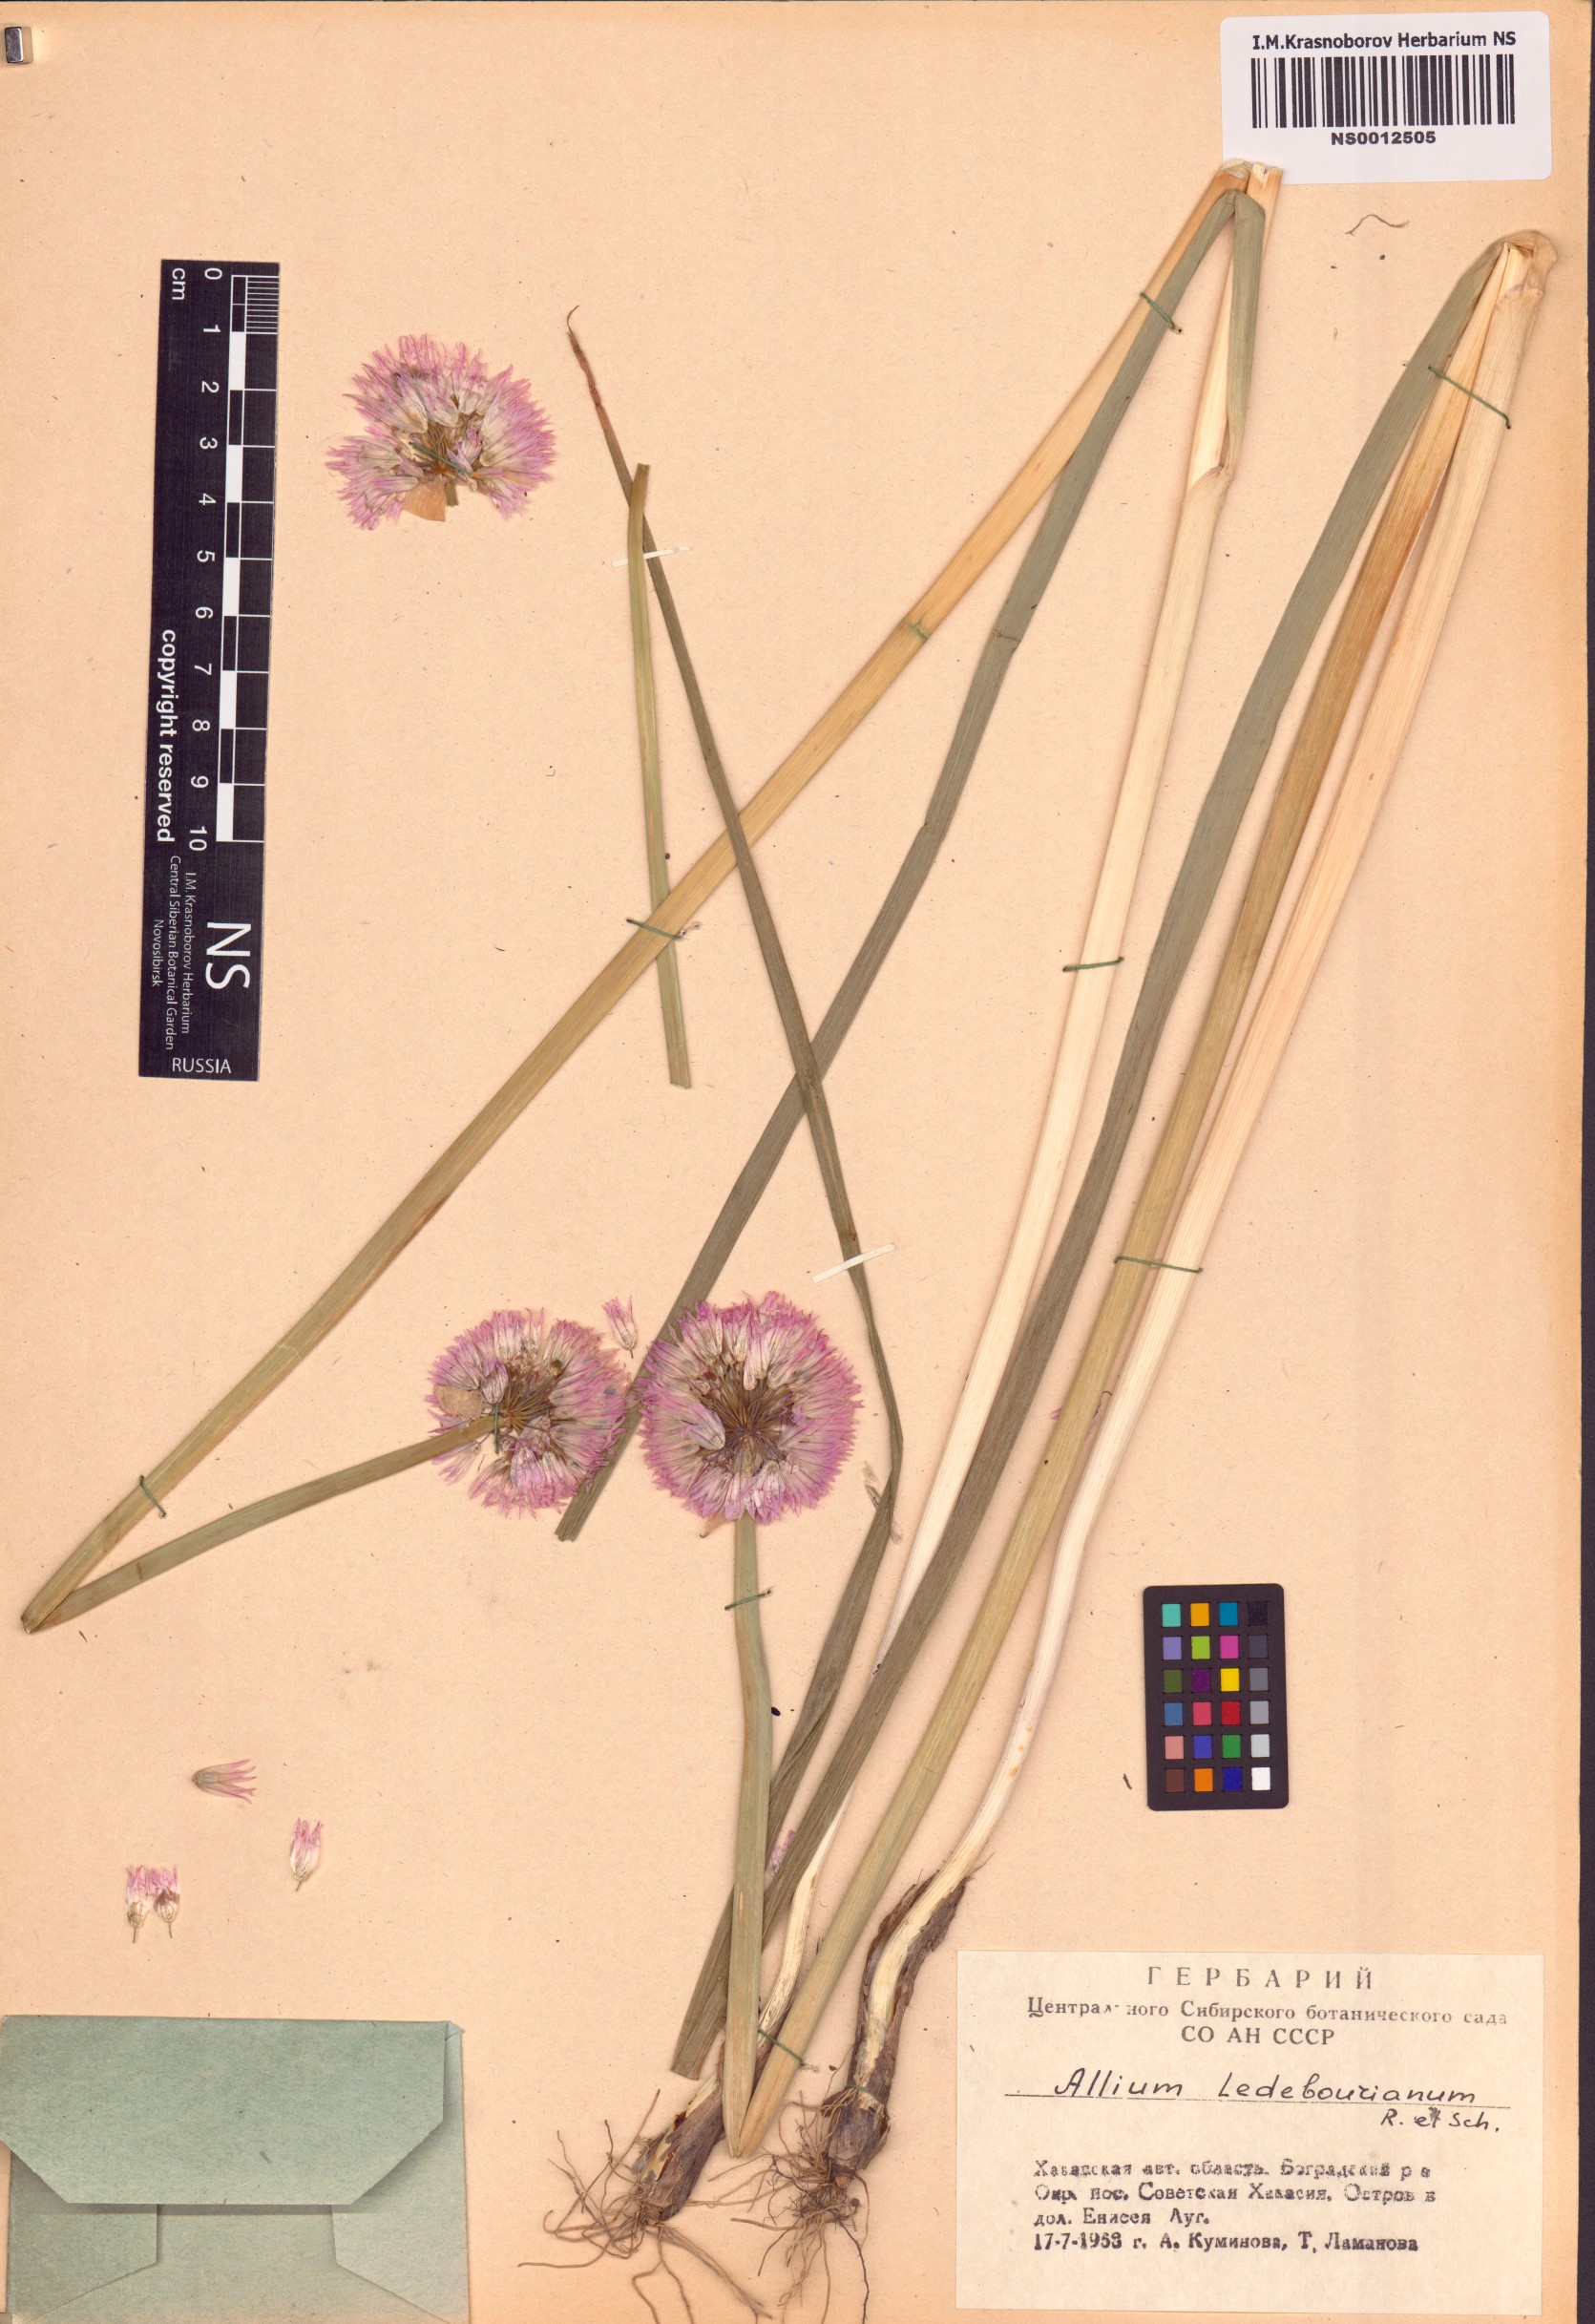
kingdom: Plantae
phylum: Tracheophyta
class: Liliopsida
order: Asparagales
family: Amaryllidaceae
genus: Allium
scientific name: Allium ledebourianum
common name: Ledebour chive
